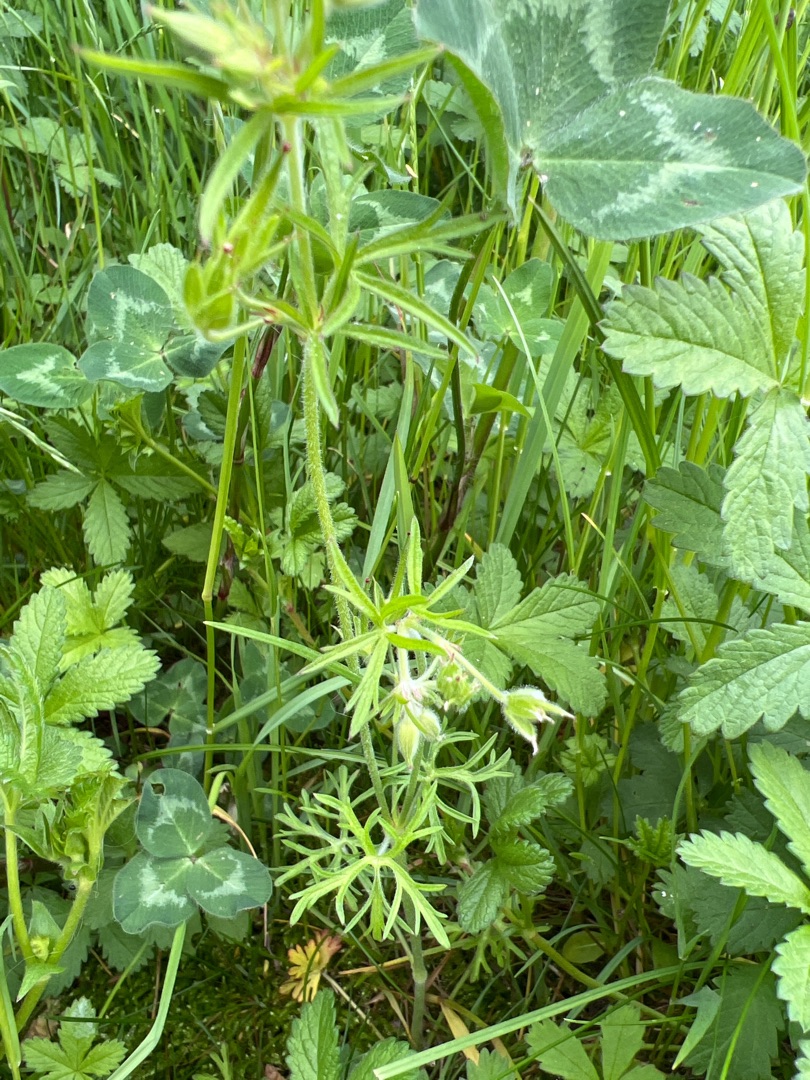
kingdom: Plantae
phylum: Tracheophyta
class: Magnoliopsida
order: Geraniales
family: Geraniaceae
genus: Geranium
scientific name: Geranium dissectum
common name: Kløftet storkenæb
